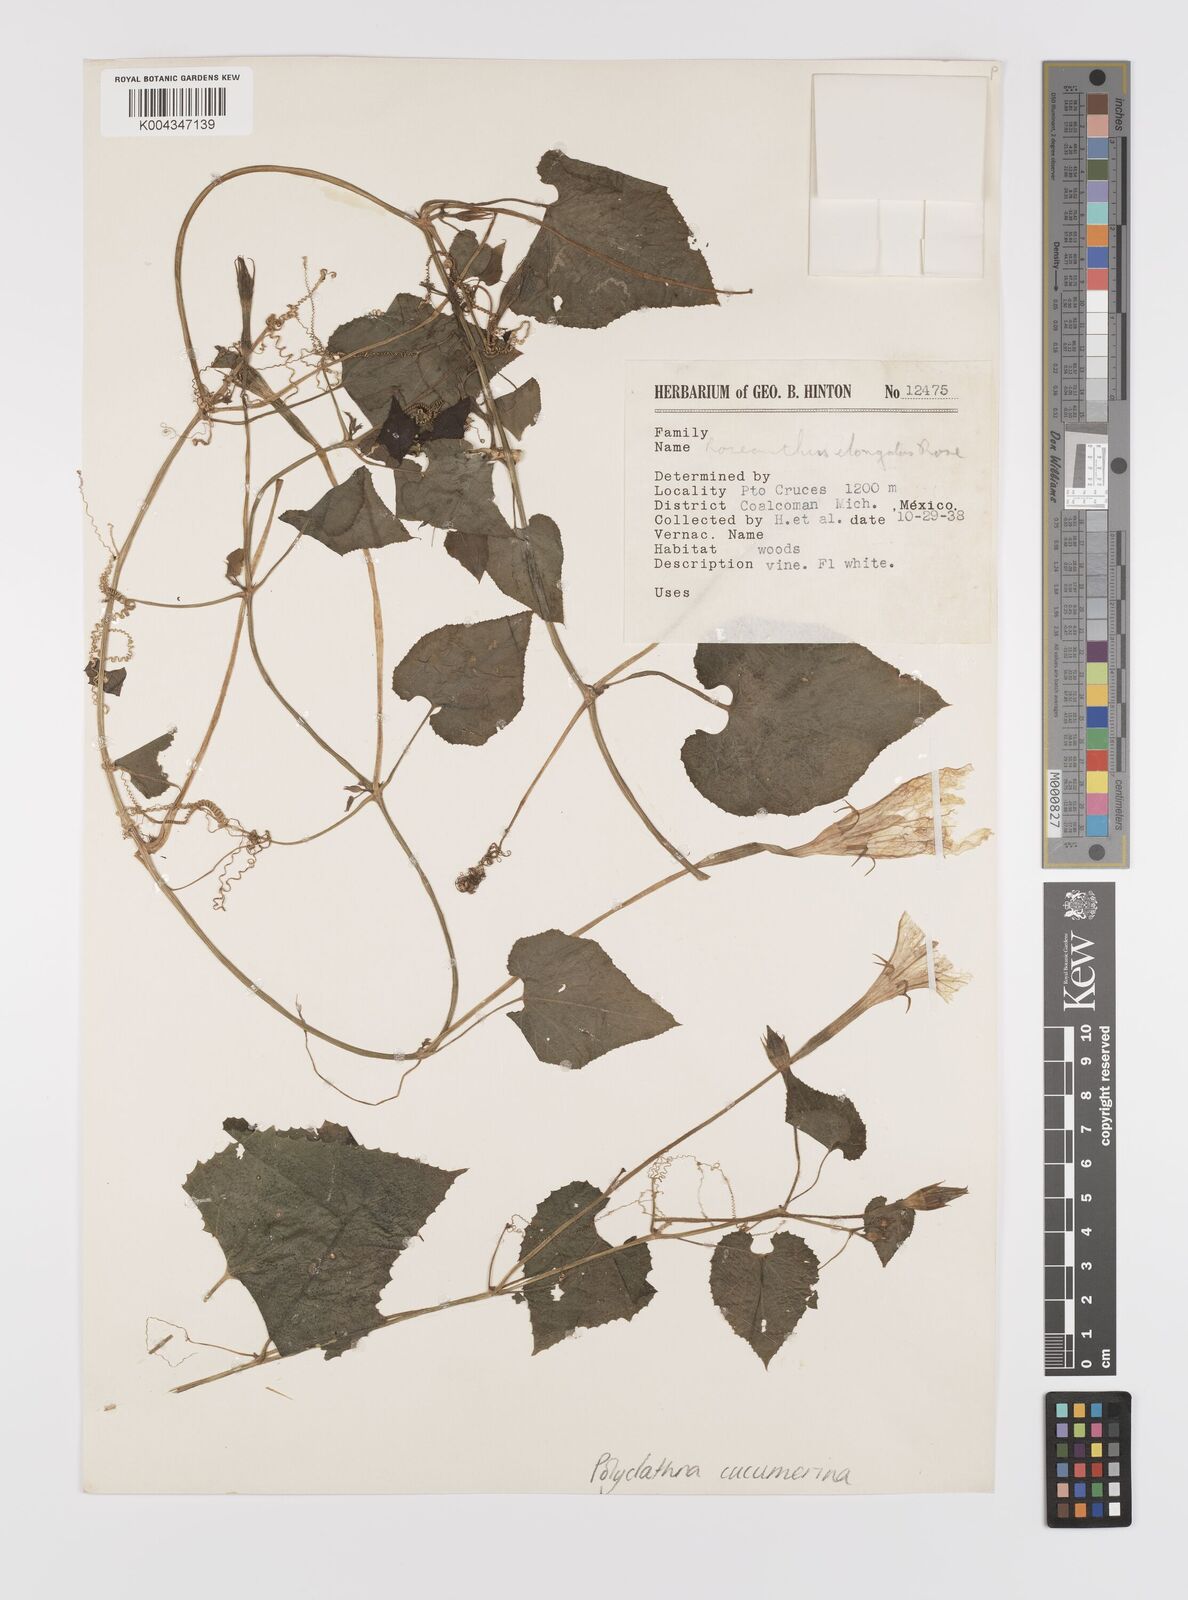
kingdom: Plantae
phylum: Tracheophyta
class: Magnoliopsida
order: Cucurbitales
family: Cucurbitaceae
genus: Polyclathra
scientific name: Polyclathra cucumerina
